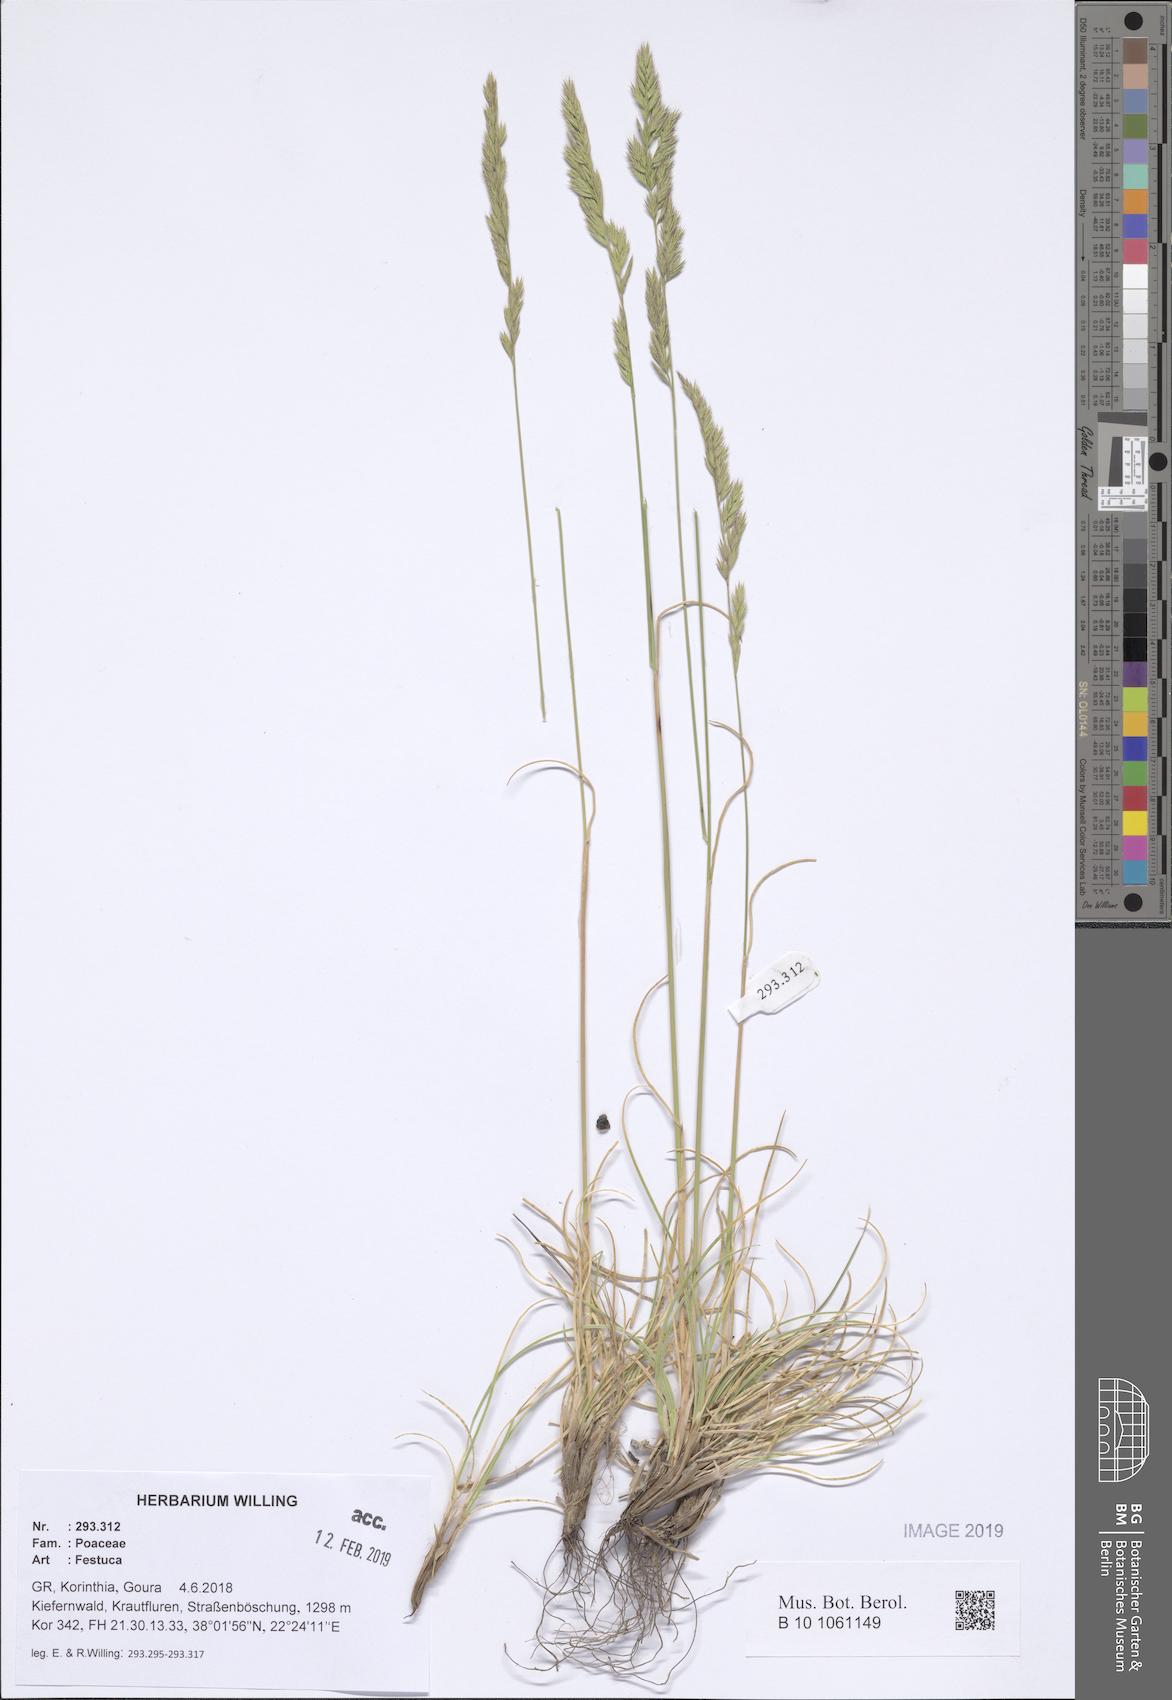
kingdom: Plantae
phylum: Tracheophyta
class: Liliopsida
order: Poales
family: Poaceae
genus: Festuca
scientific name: Festuca
